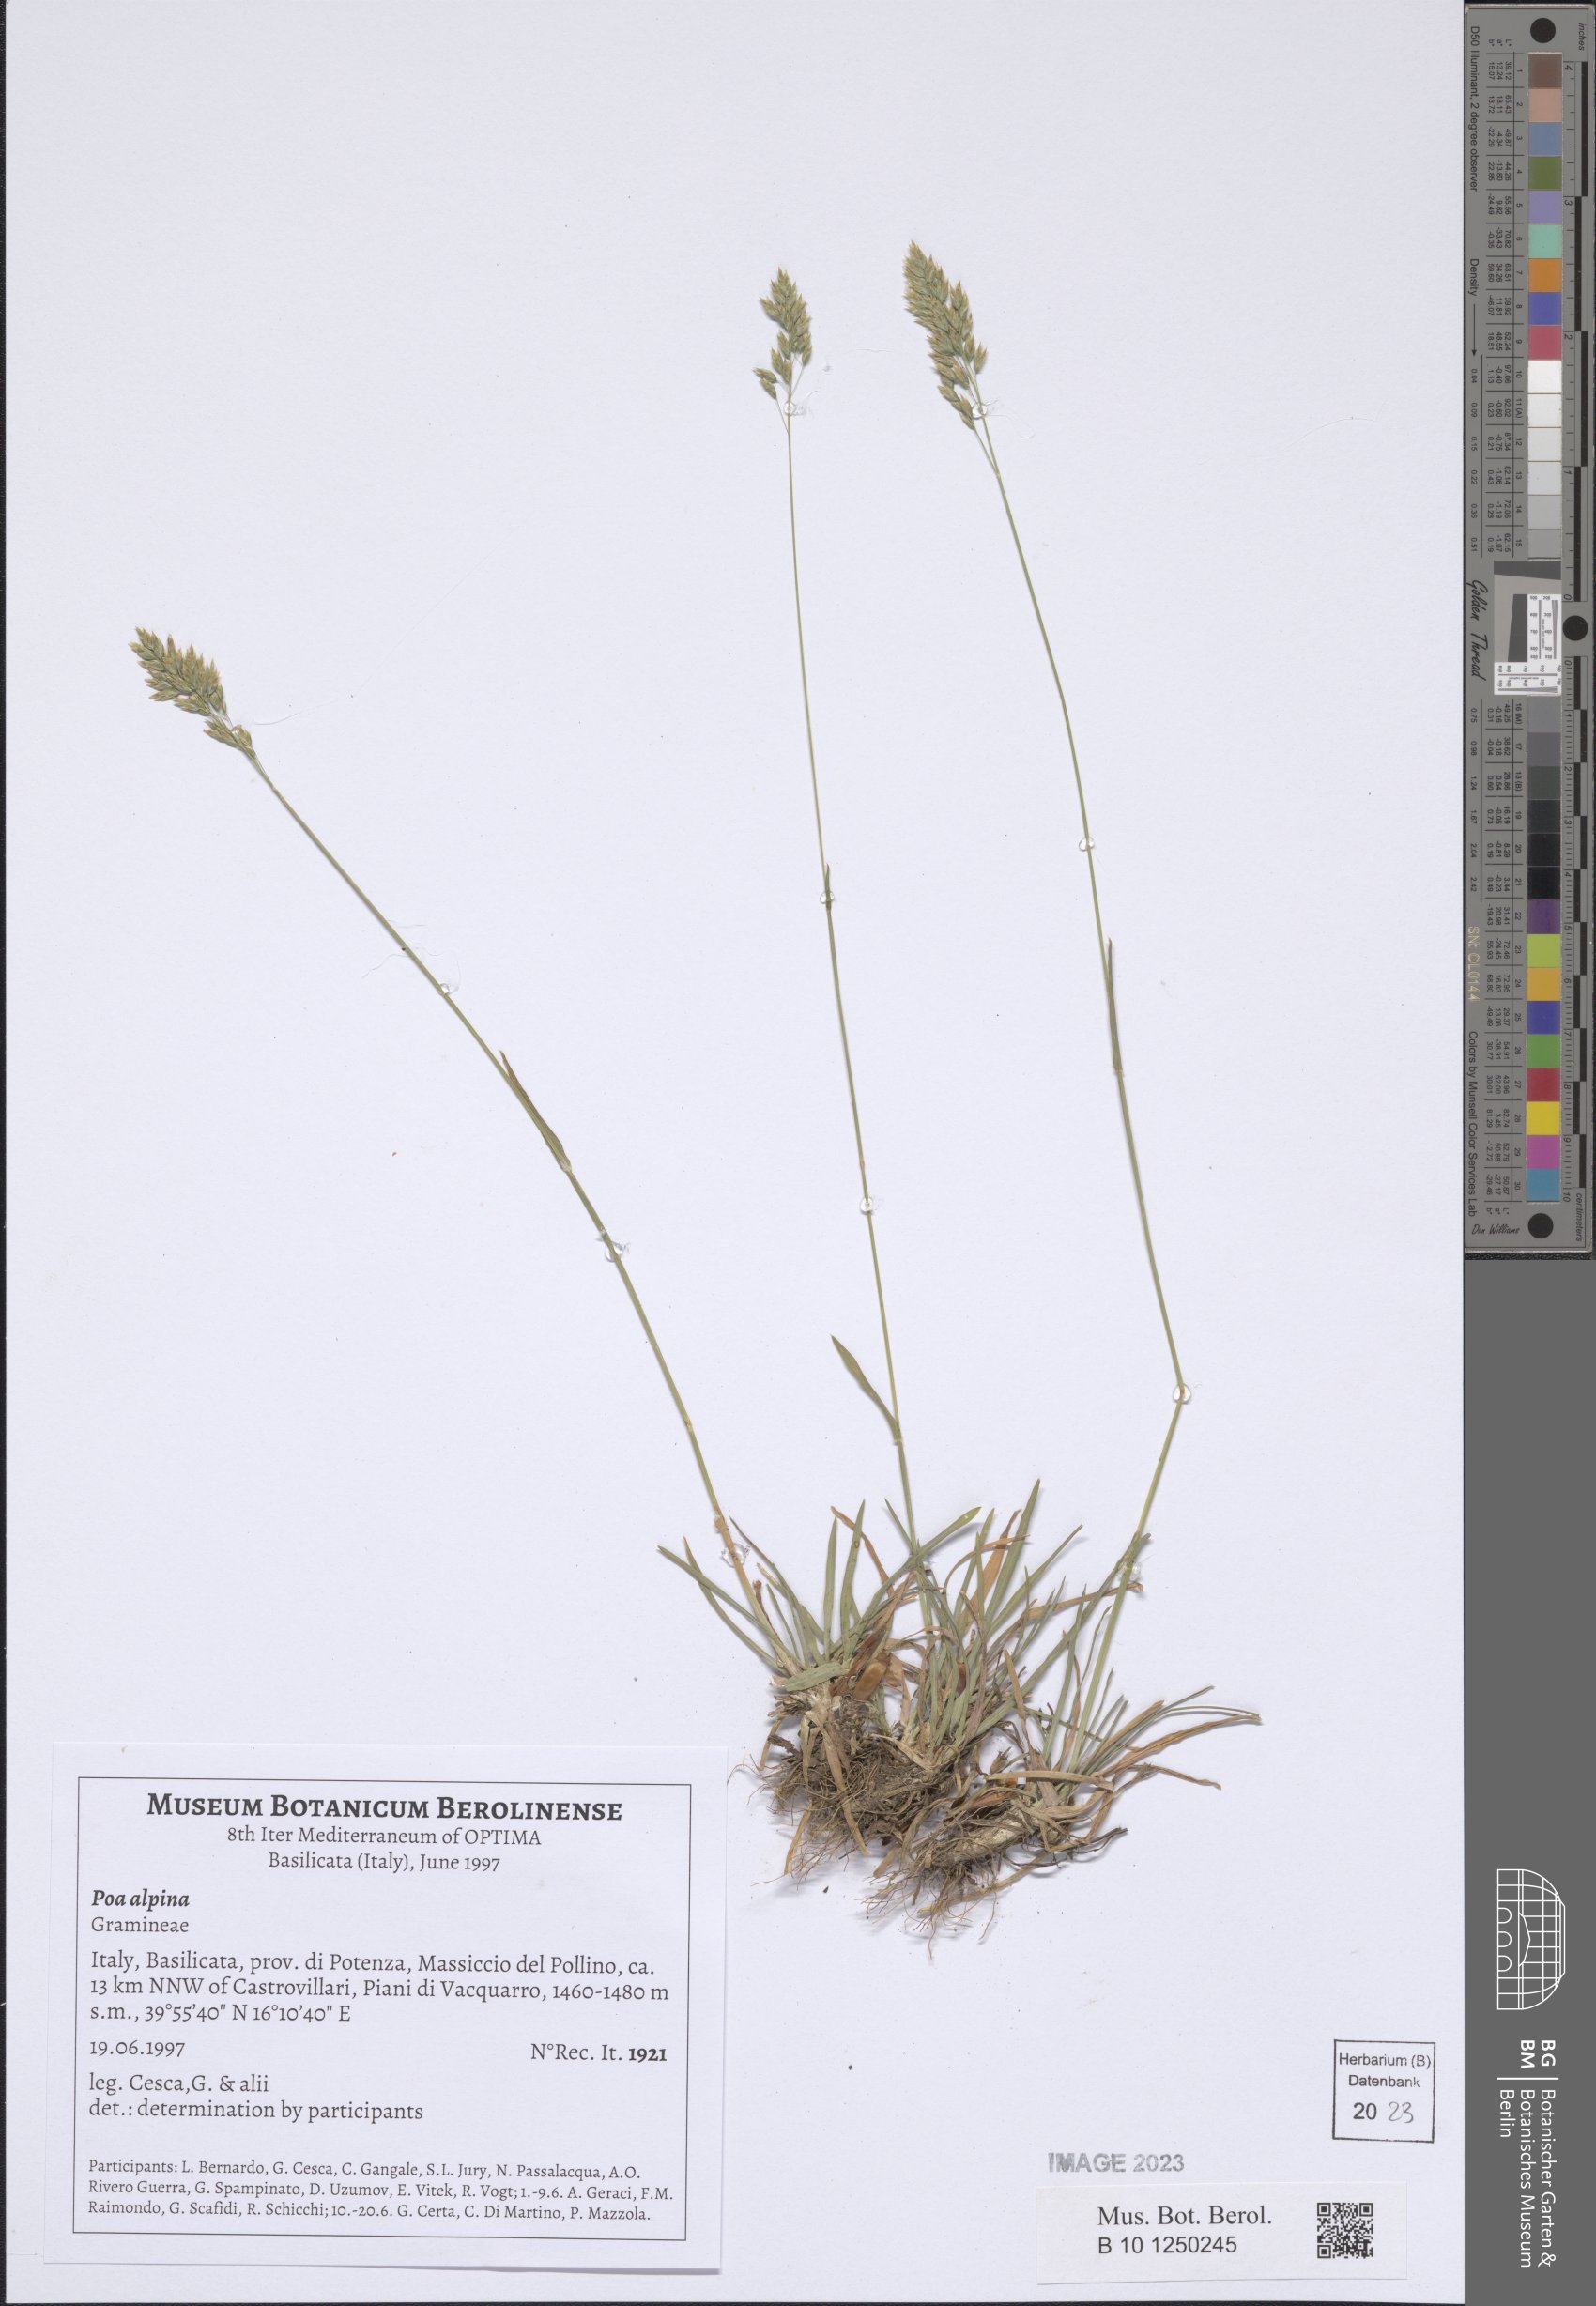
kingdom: Plantae
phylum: Tracheophyta
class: Liliopsida
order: Poales
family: Poaceae
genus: Poa
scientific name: Poa alpina
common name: Alpine bluegrass
